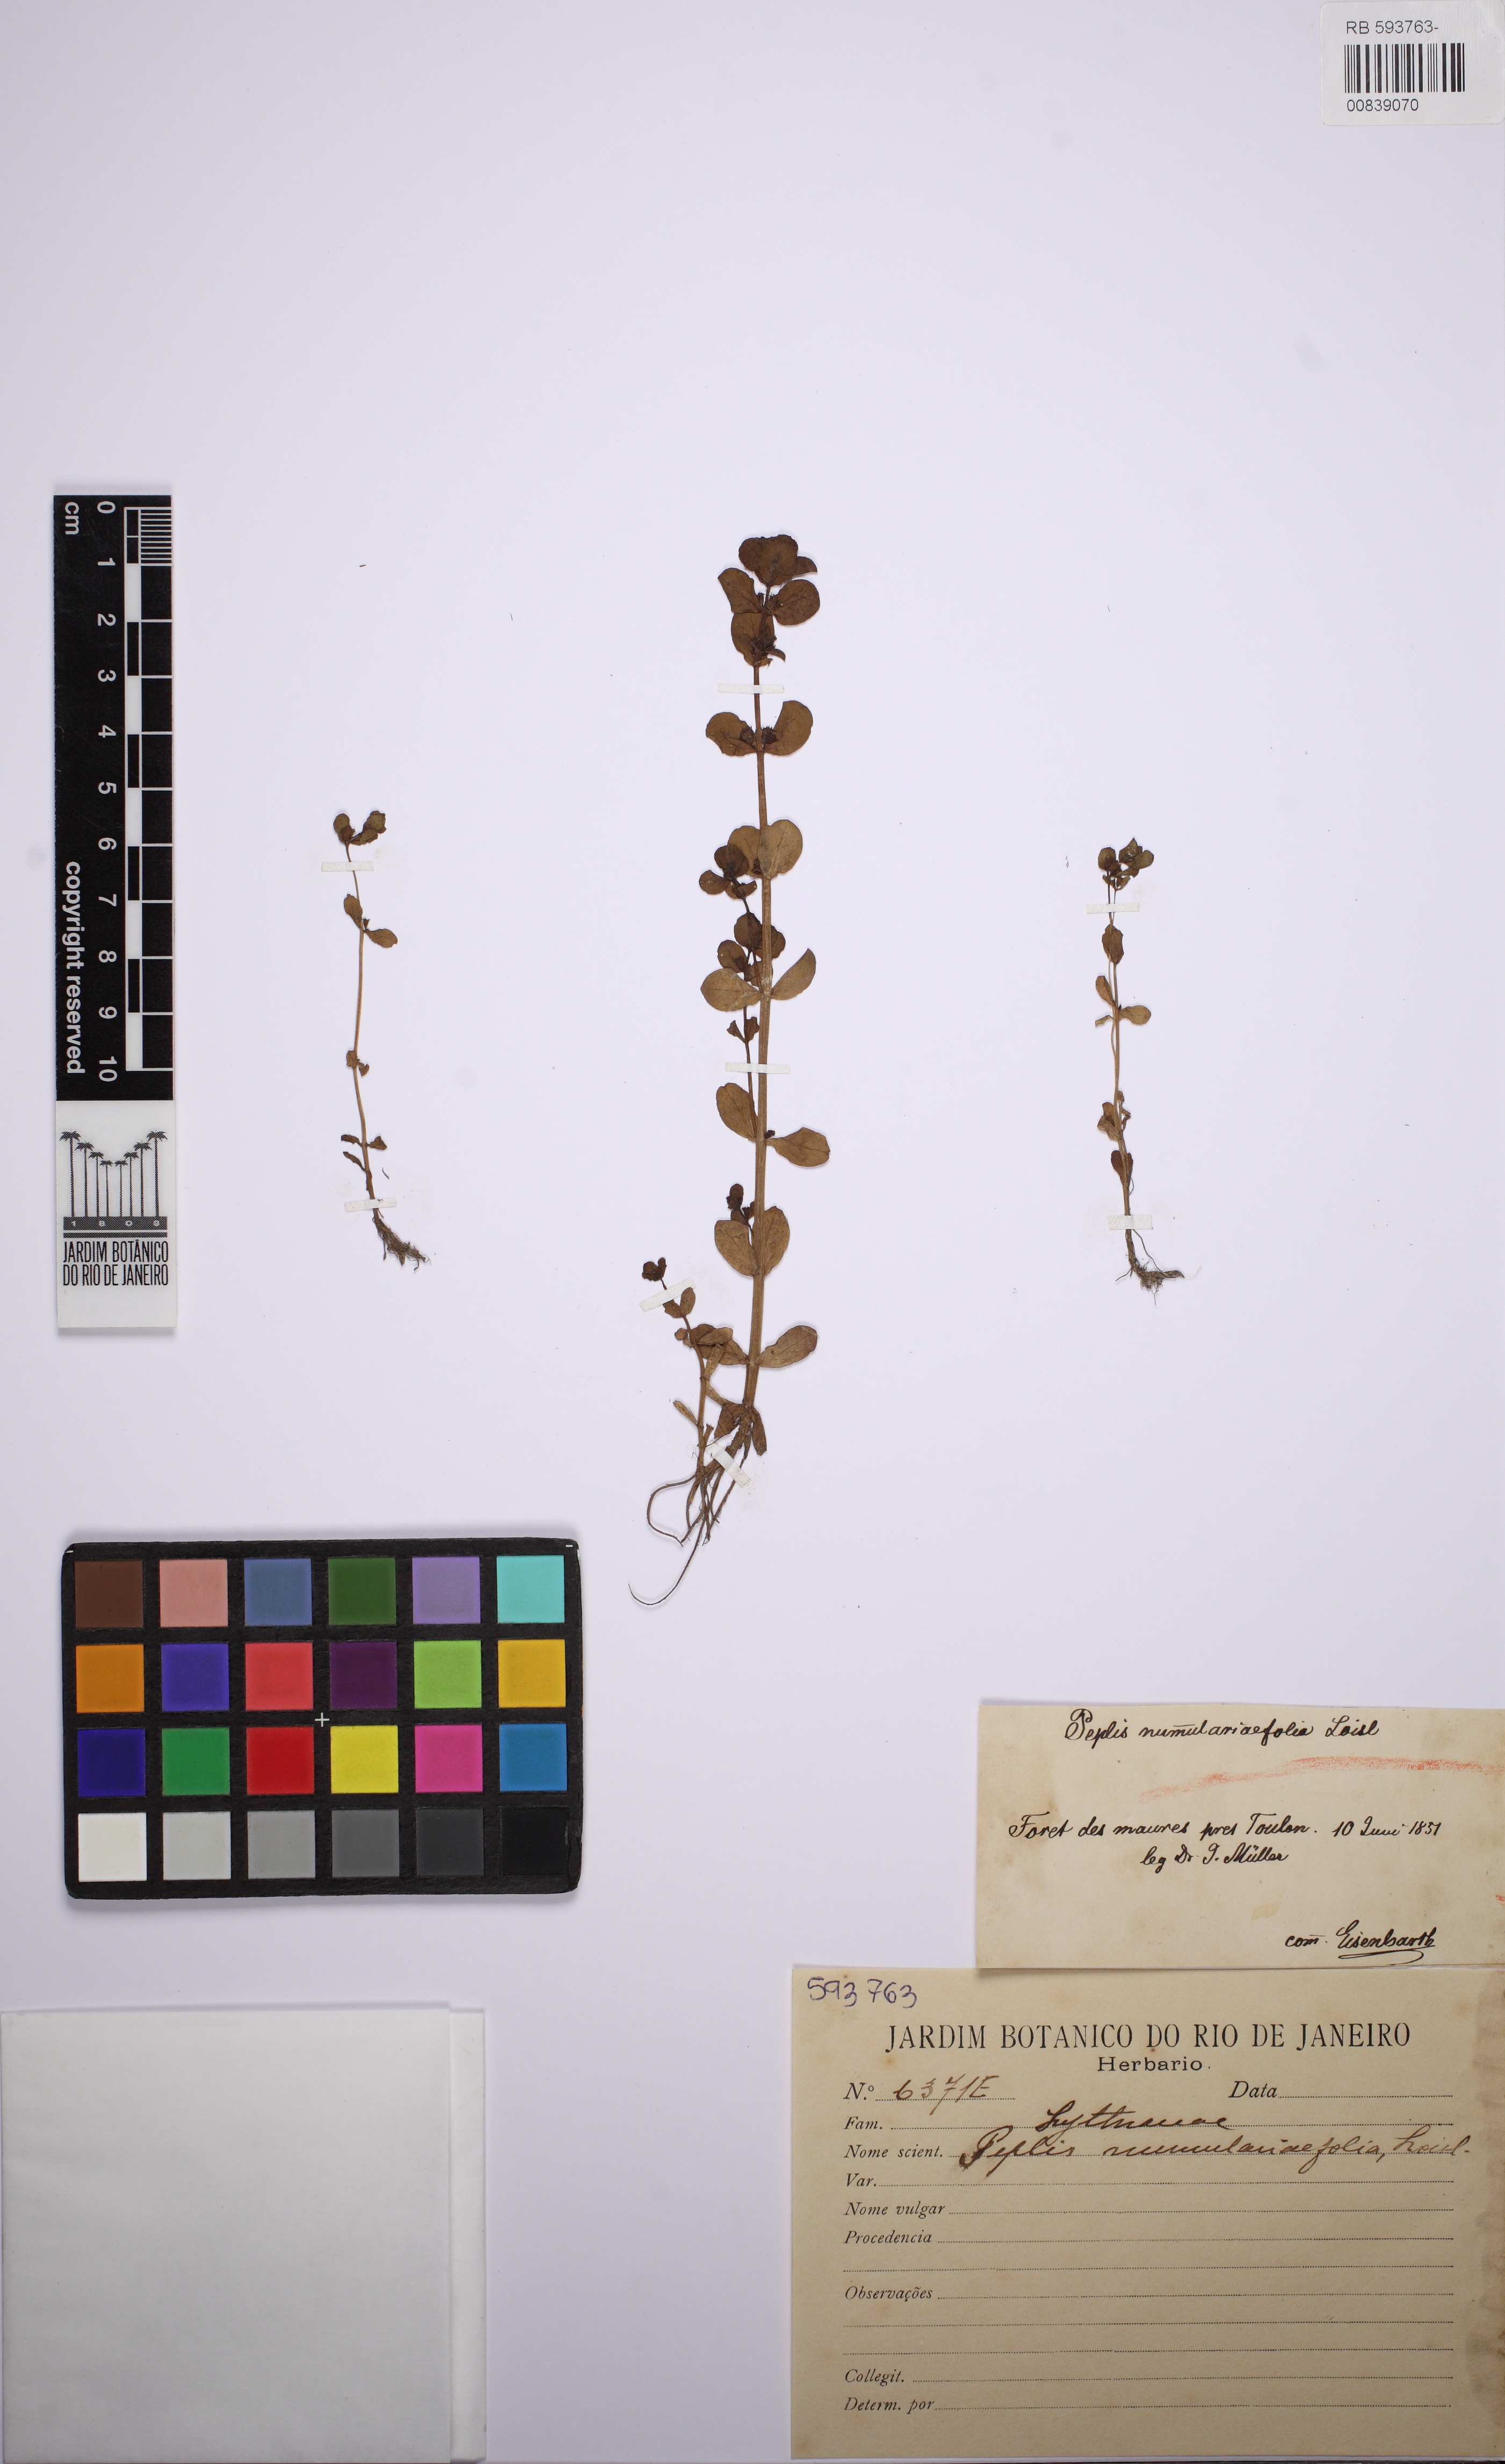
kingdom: Plantae
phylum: Tracheophyta
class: Magnoliopsida
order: Myrtales
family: Lythraceae
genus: Lythrum
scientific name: Lythrum borysthenicum
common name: Loosestrife
